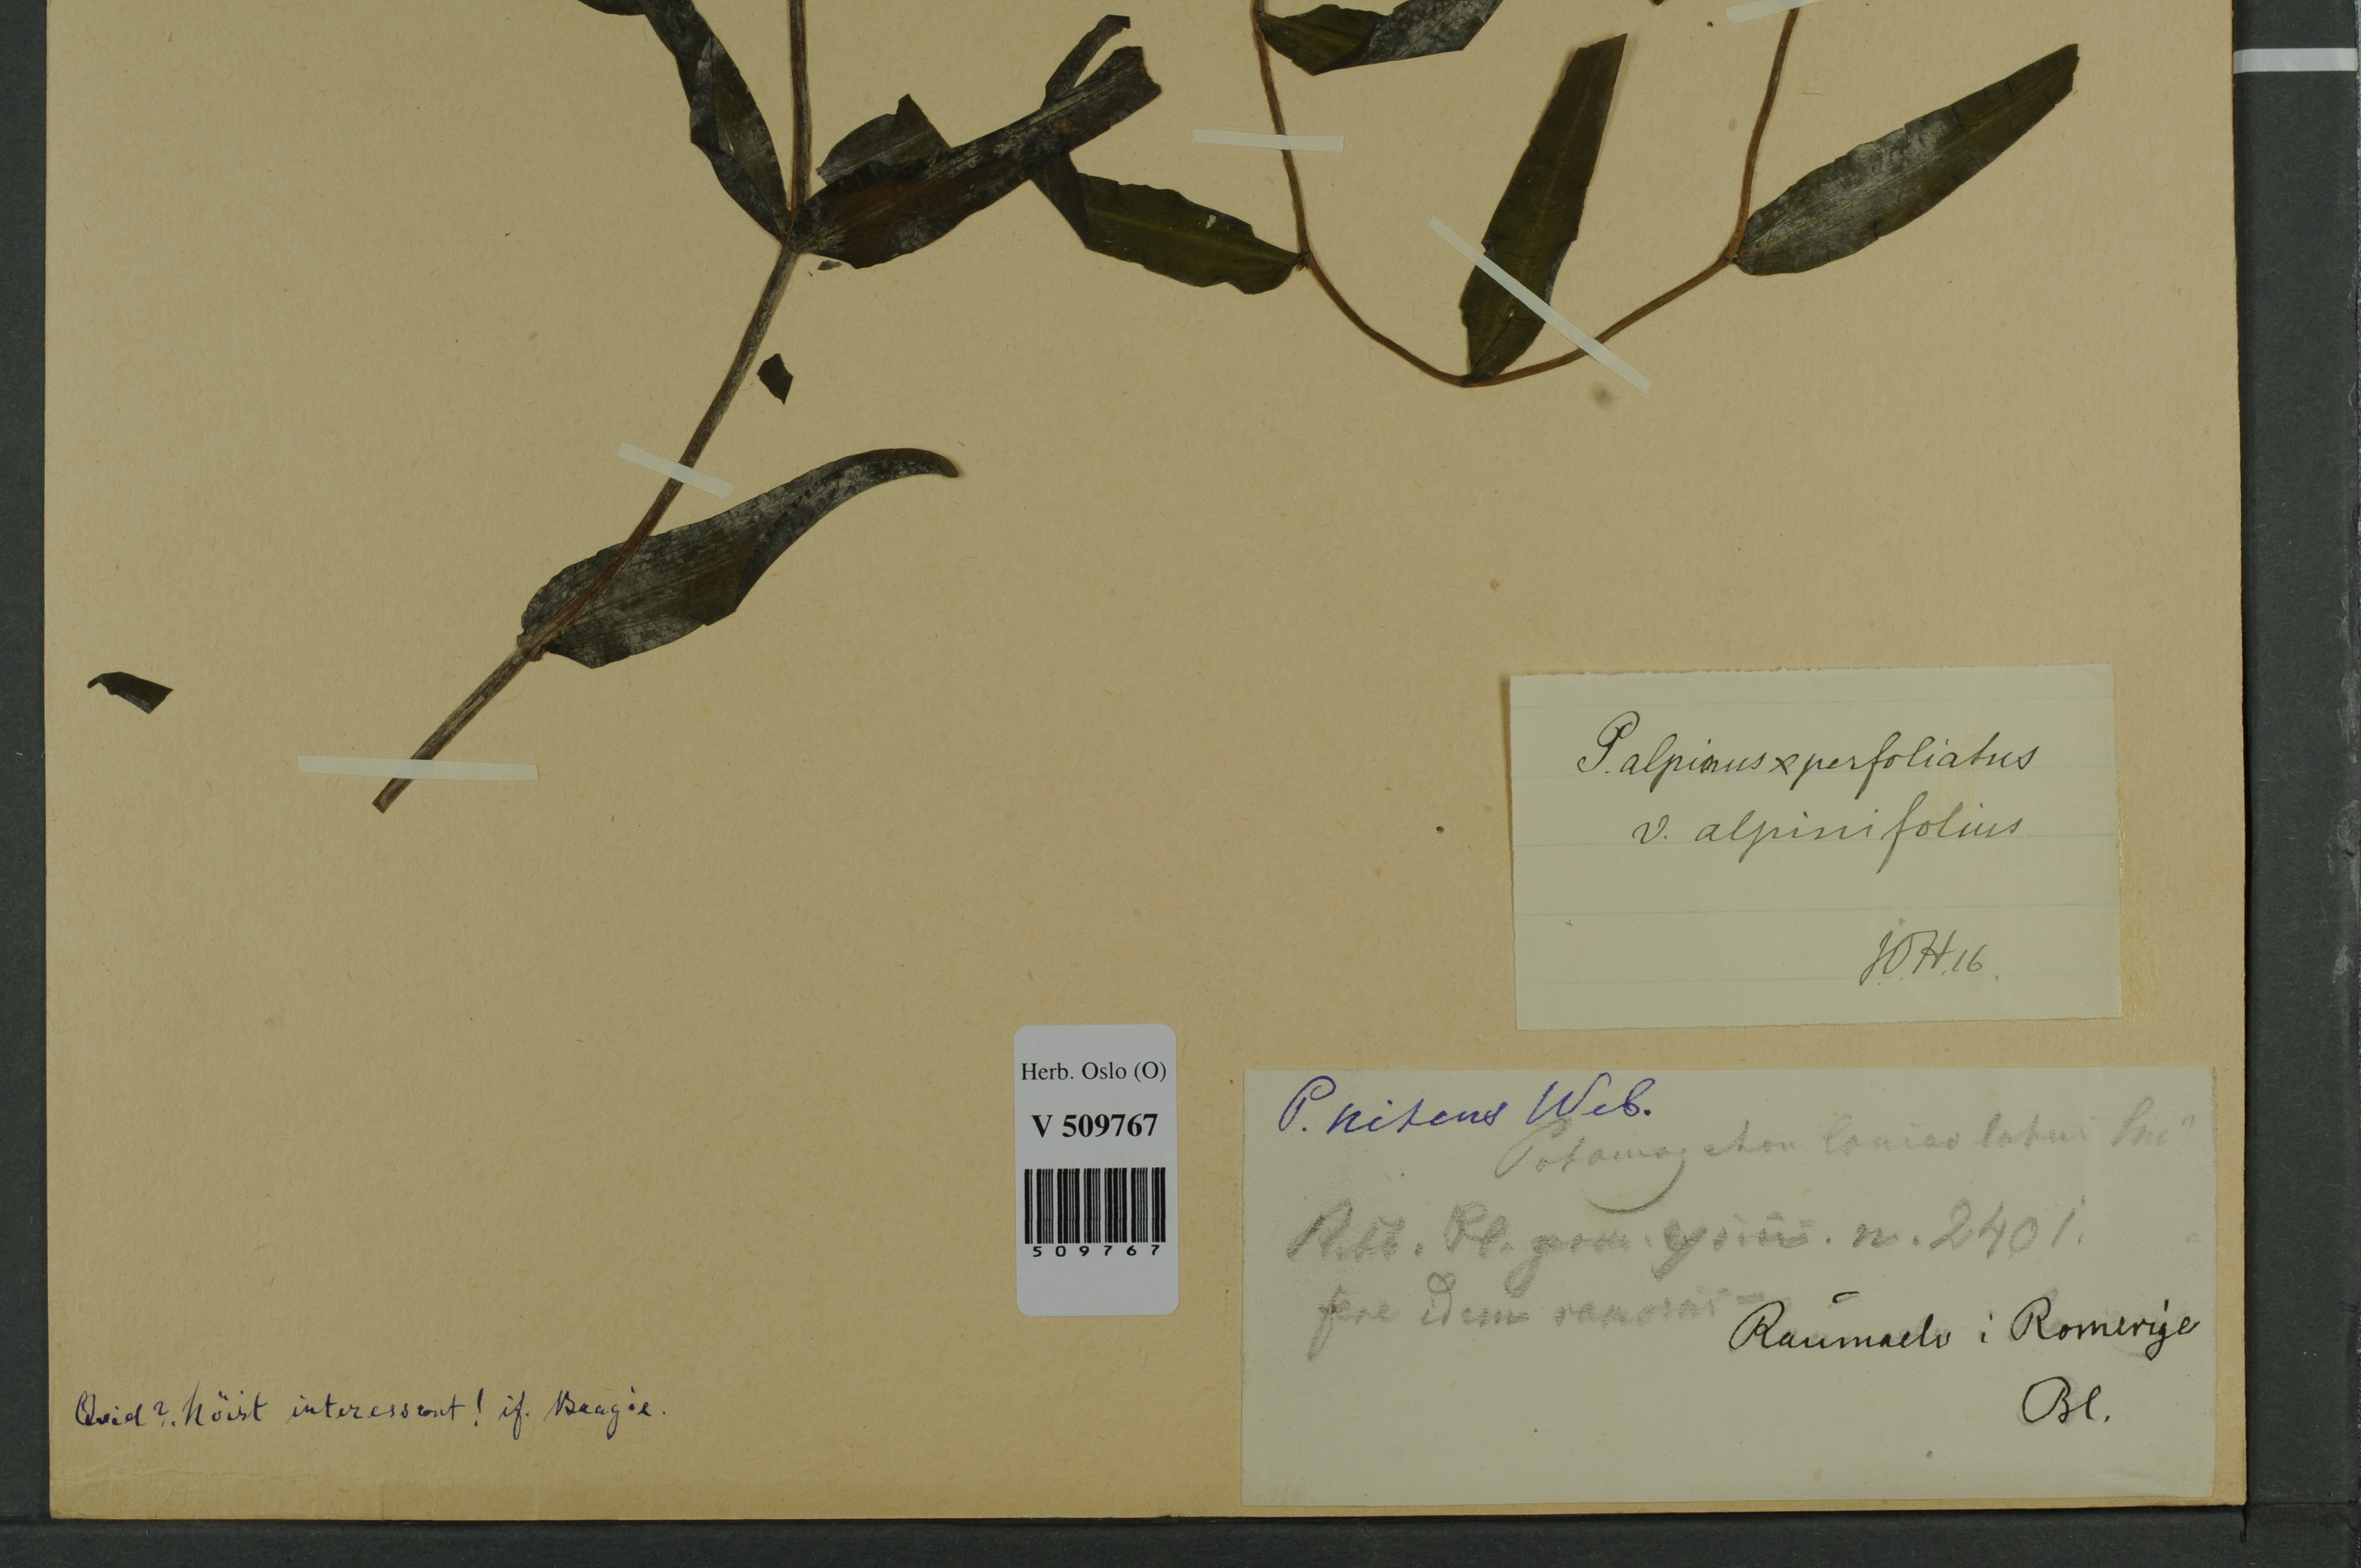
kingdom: Plantae
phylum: Tracheophyta
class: Liliopsida
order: Alismatales
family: Potamogetonaceae
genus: Potamogeton
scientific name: Potamogeton prussicus
